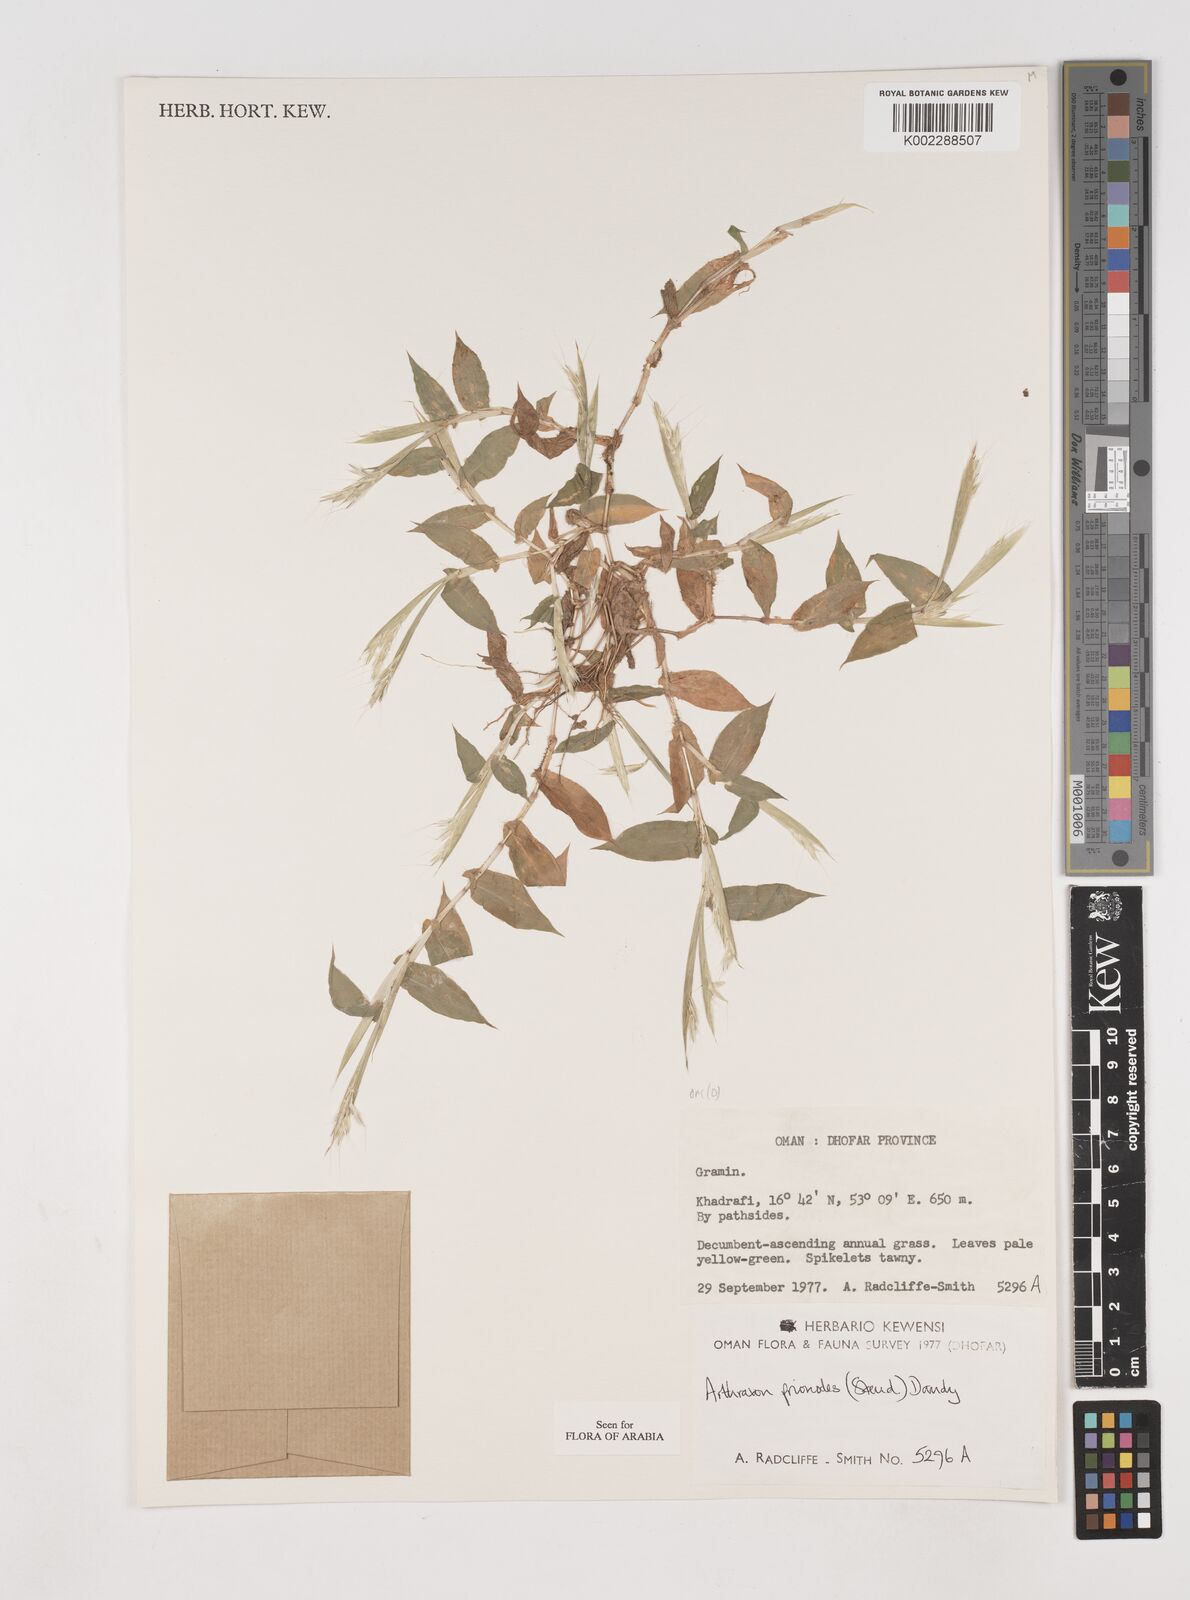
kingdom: Plantae
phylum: Tracheophyta
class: Liliopsida
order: Poales
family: Poaceae
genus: Arthraxon
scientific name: Arthraxon prionodes
